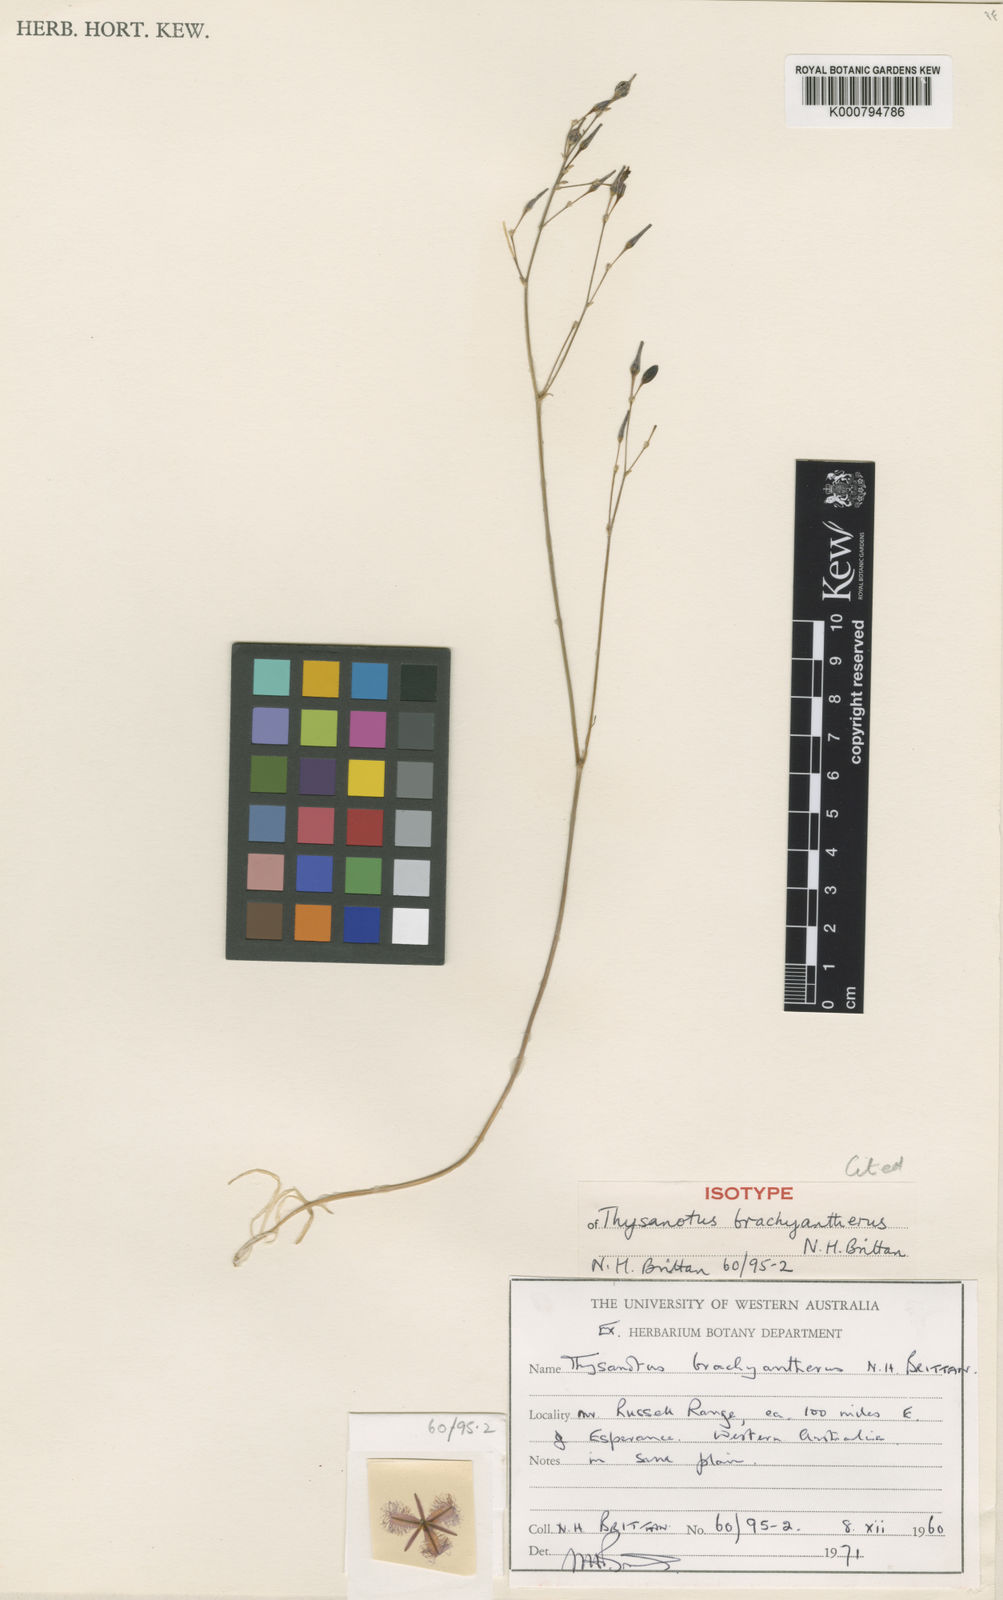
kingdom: Plantae
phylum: Tracheophyta
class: Liliopsida
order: Asparagales
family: Asparagaceae
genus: Thysanotus
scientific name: Thysanotus brachyantherus
